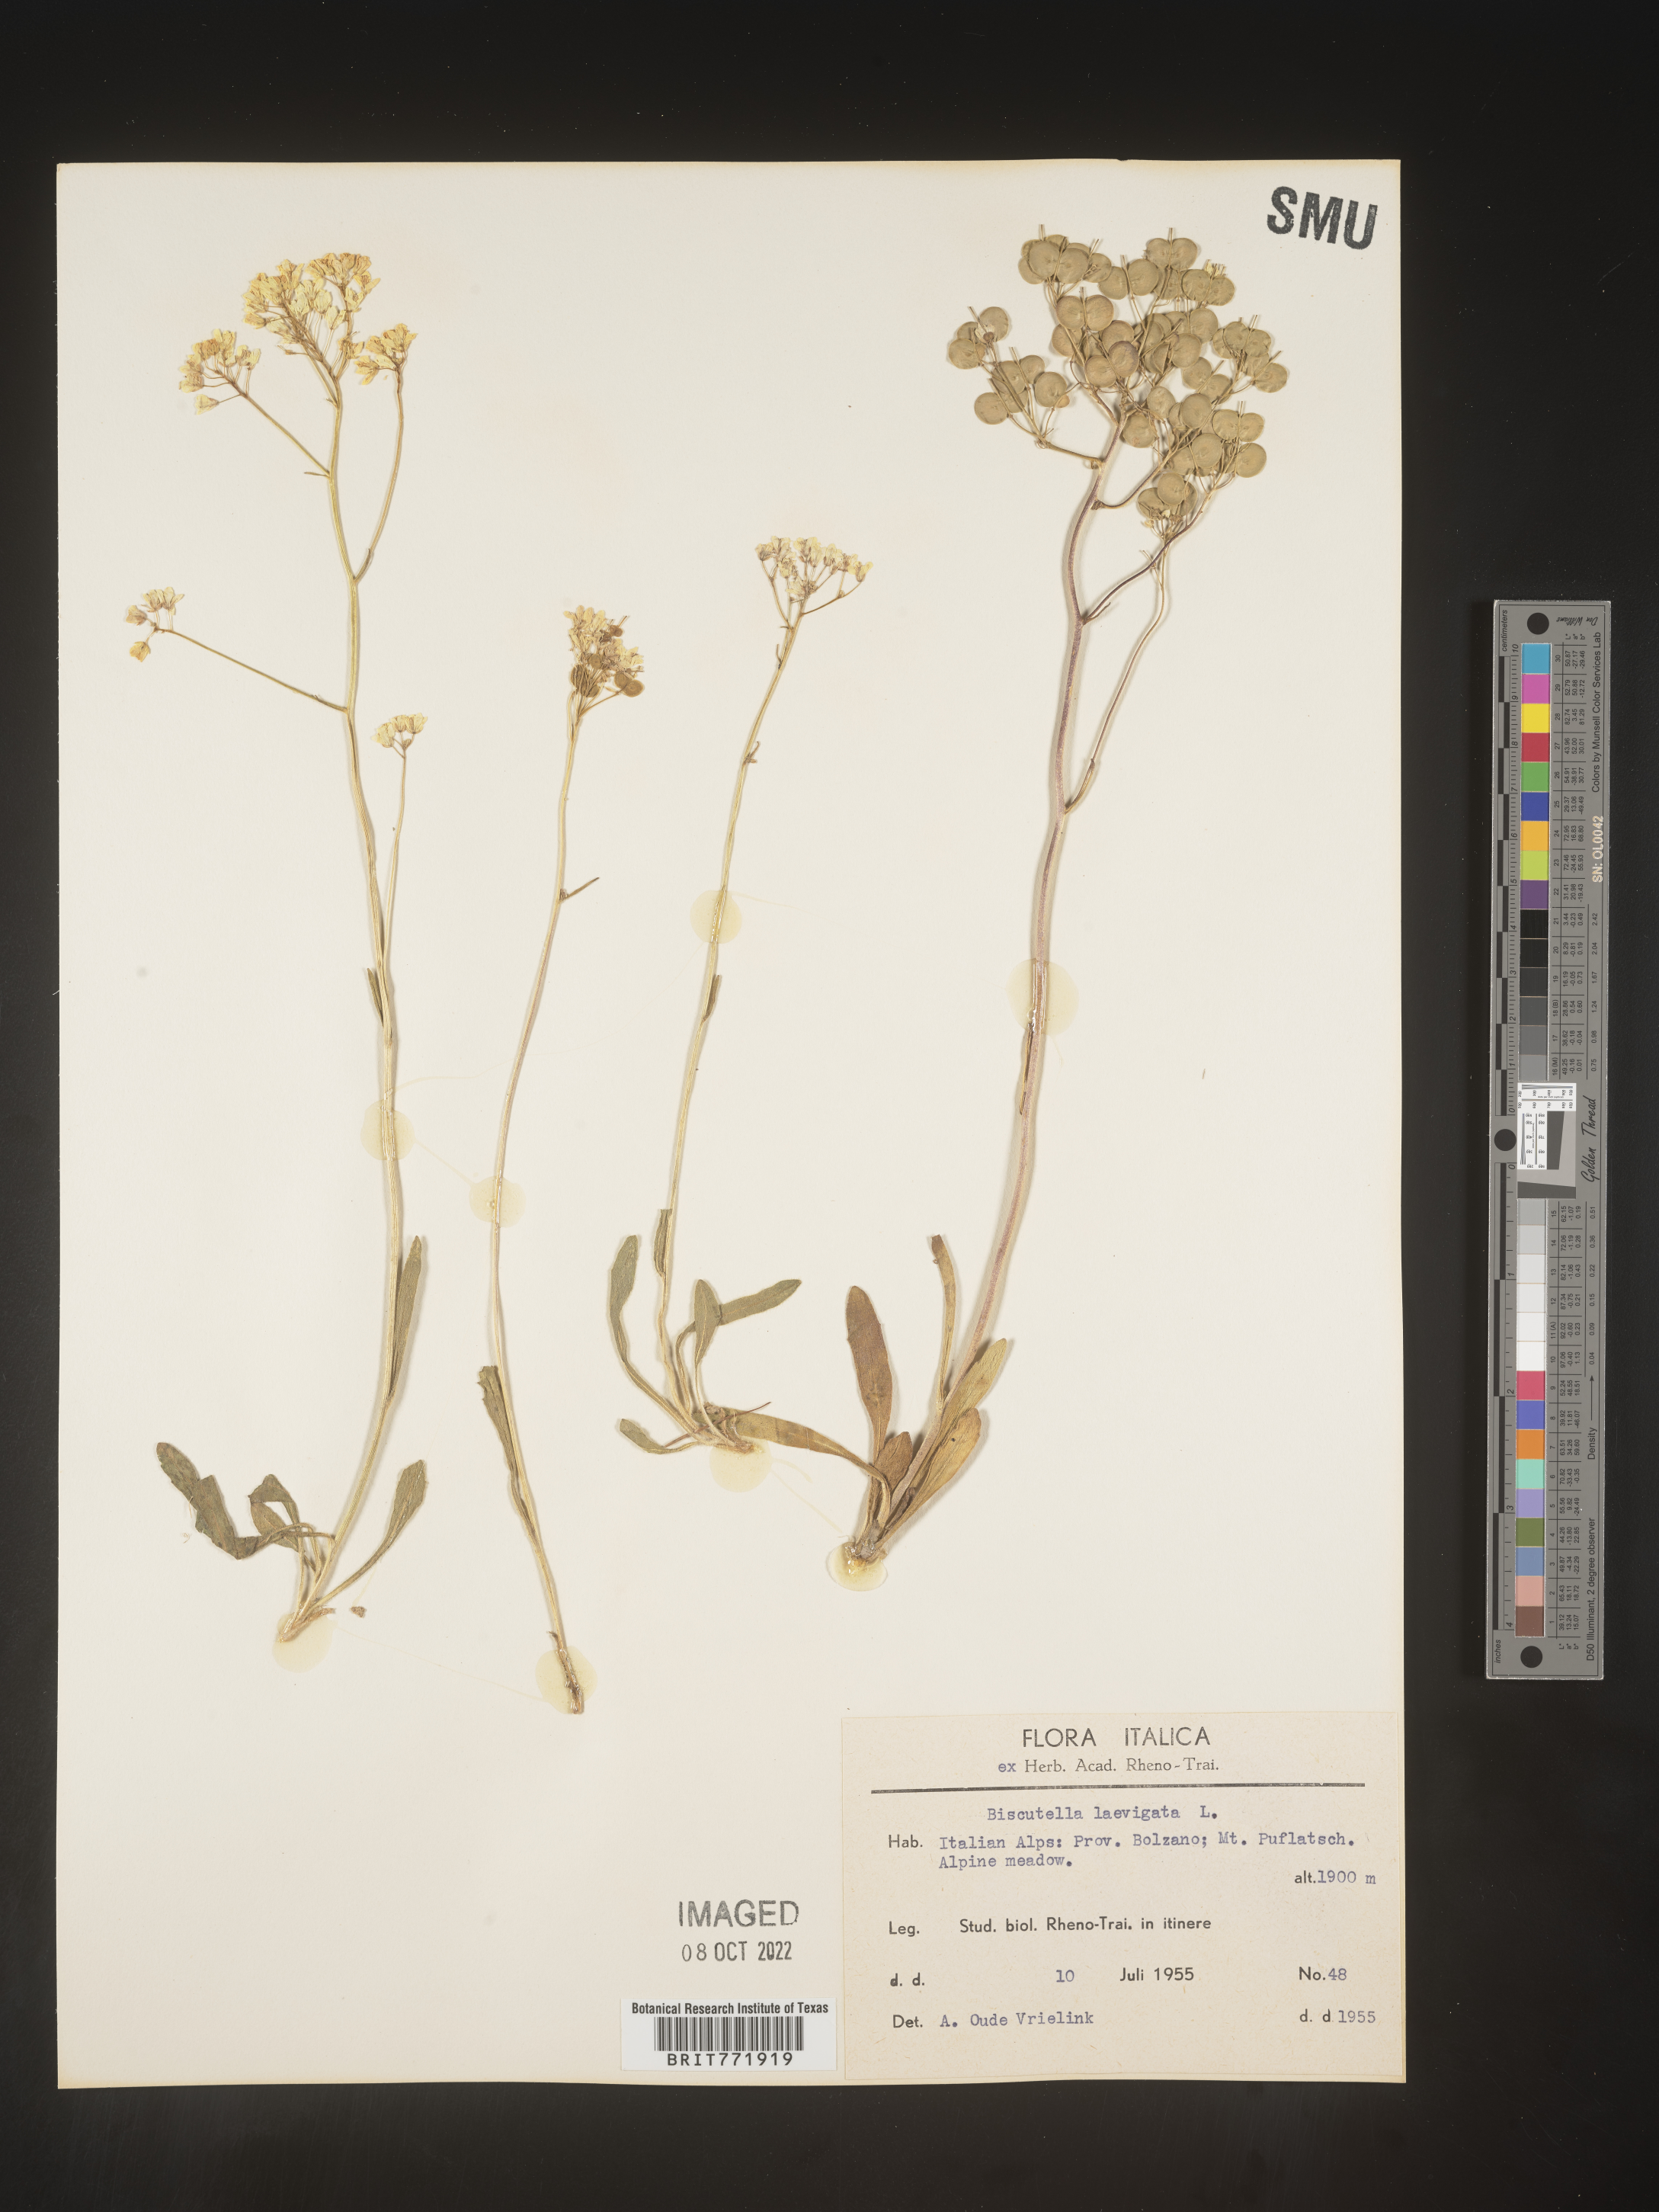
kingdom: Plantae
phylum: Tracheophyta
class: Magnoliopsida
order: Brassicales
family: Brassicaceae
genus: Biscutella
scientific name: Biscutella
